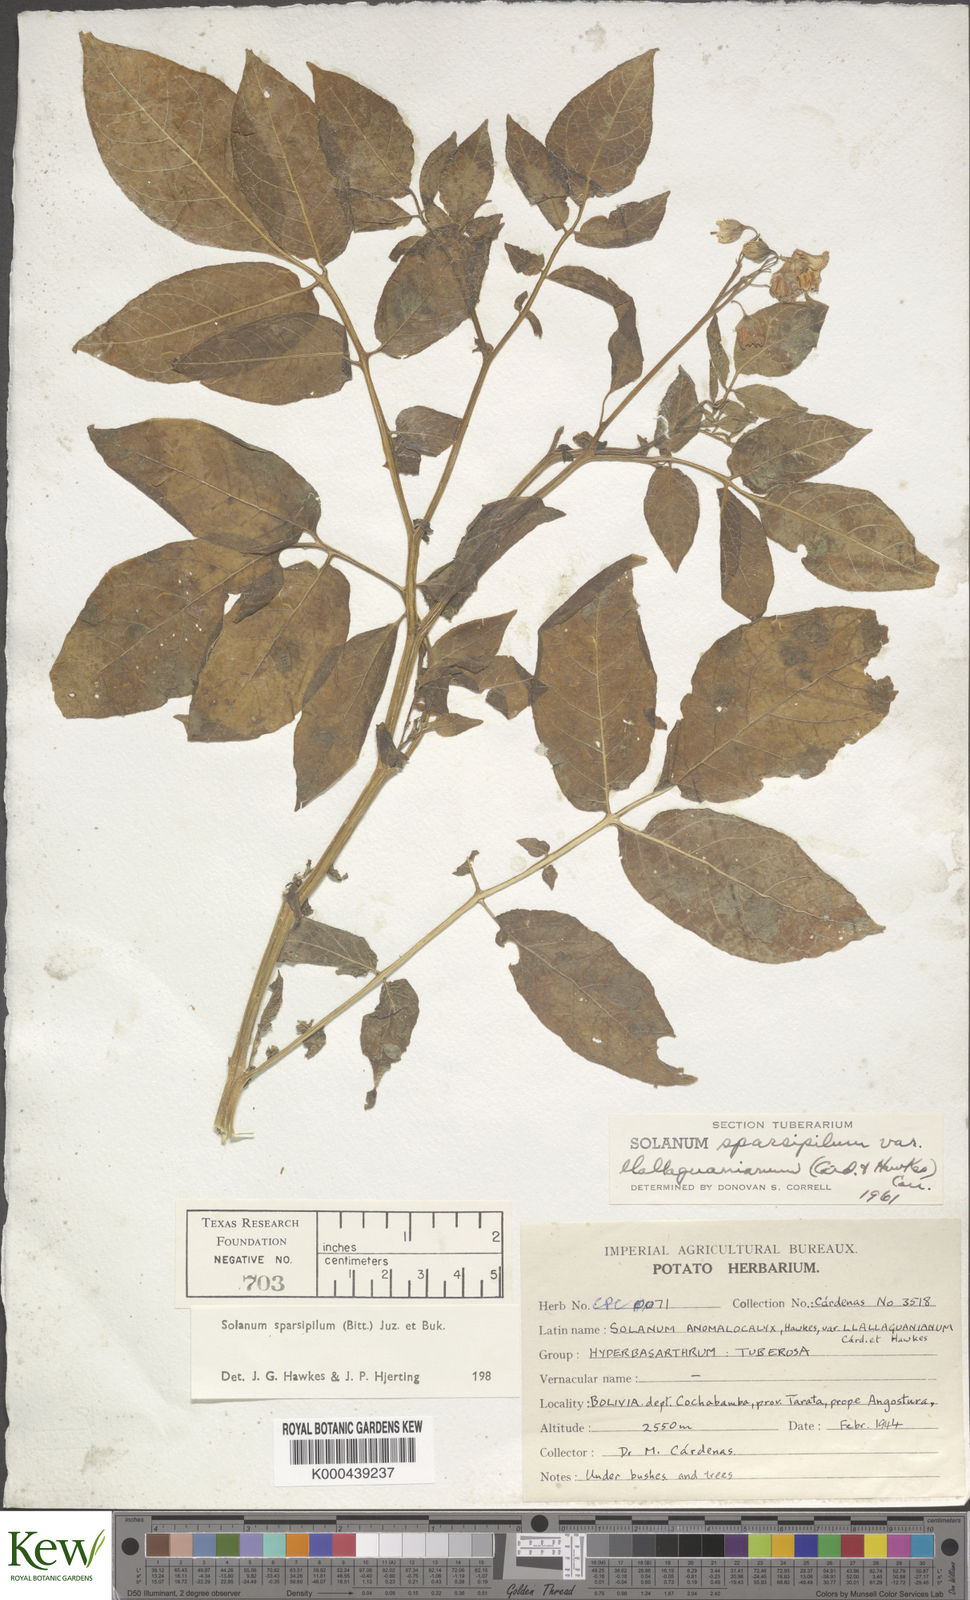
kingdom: Plantae
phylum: Tracheophyta
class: Magnoliopsida
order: Solanales
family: Solanaceae
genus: Solanum
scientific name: Solanum brevicaule
